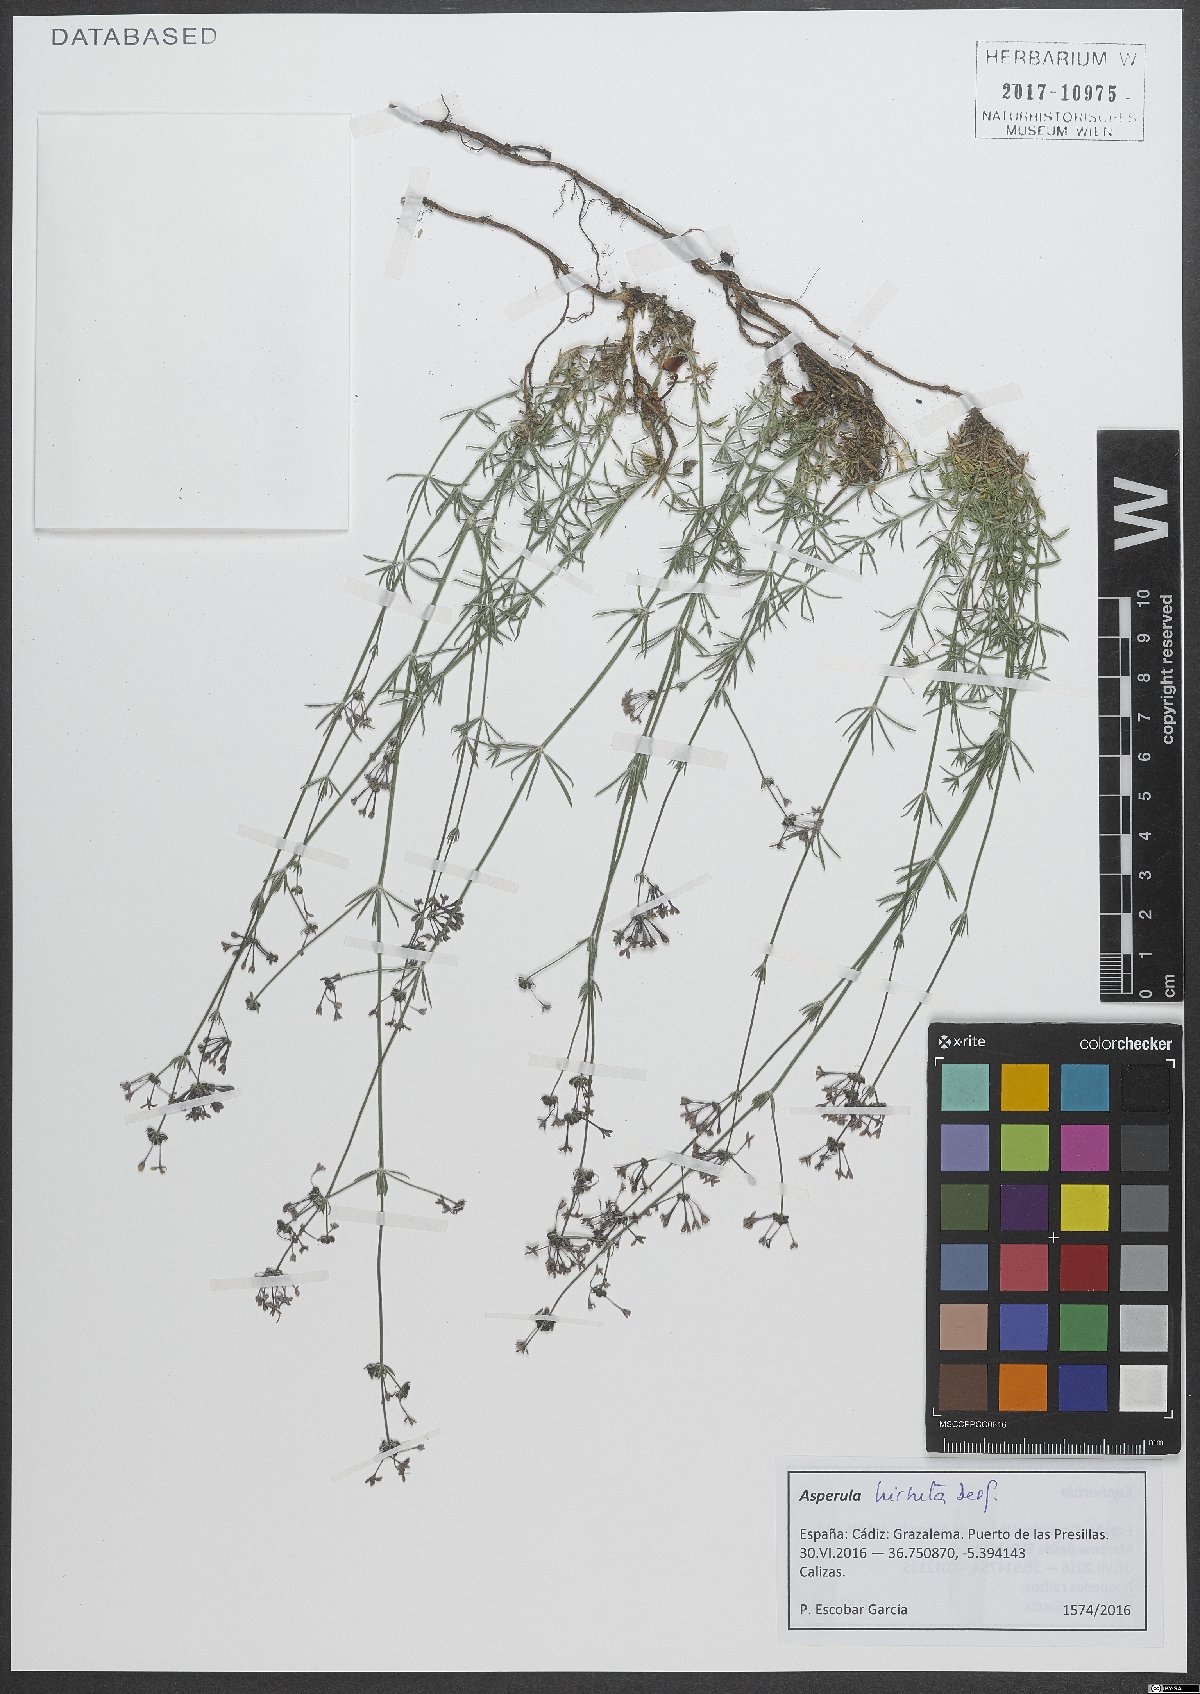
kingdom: Plantae
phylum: Tracheophyta
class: Magnoliopsida
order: Gentianales
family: Rubiaceae
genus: Hexaphylla
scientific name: Hexaphylla hirsuta
